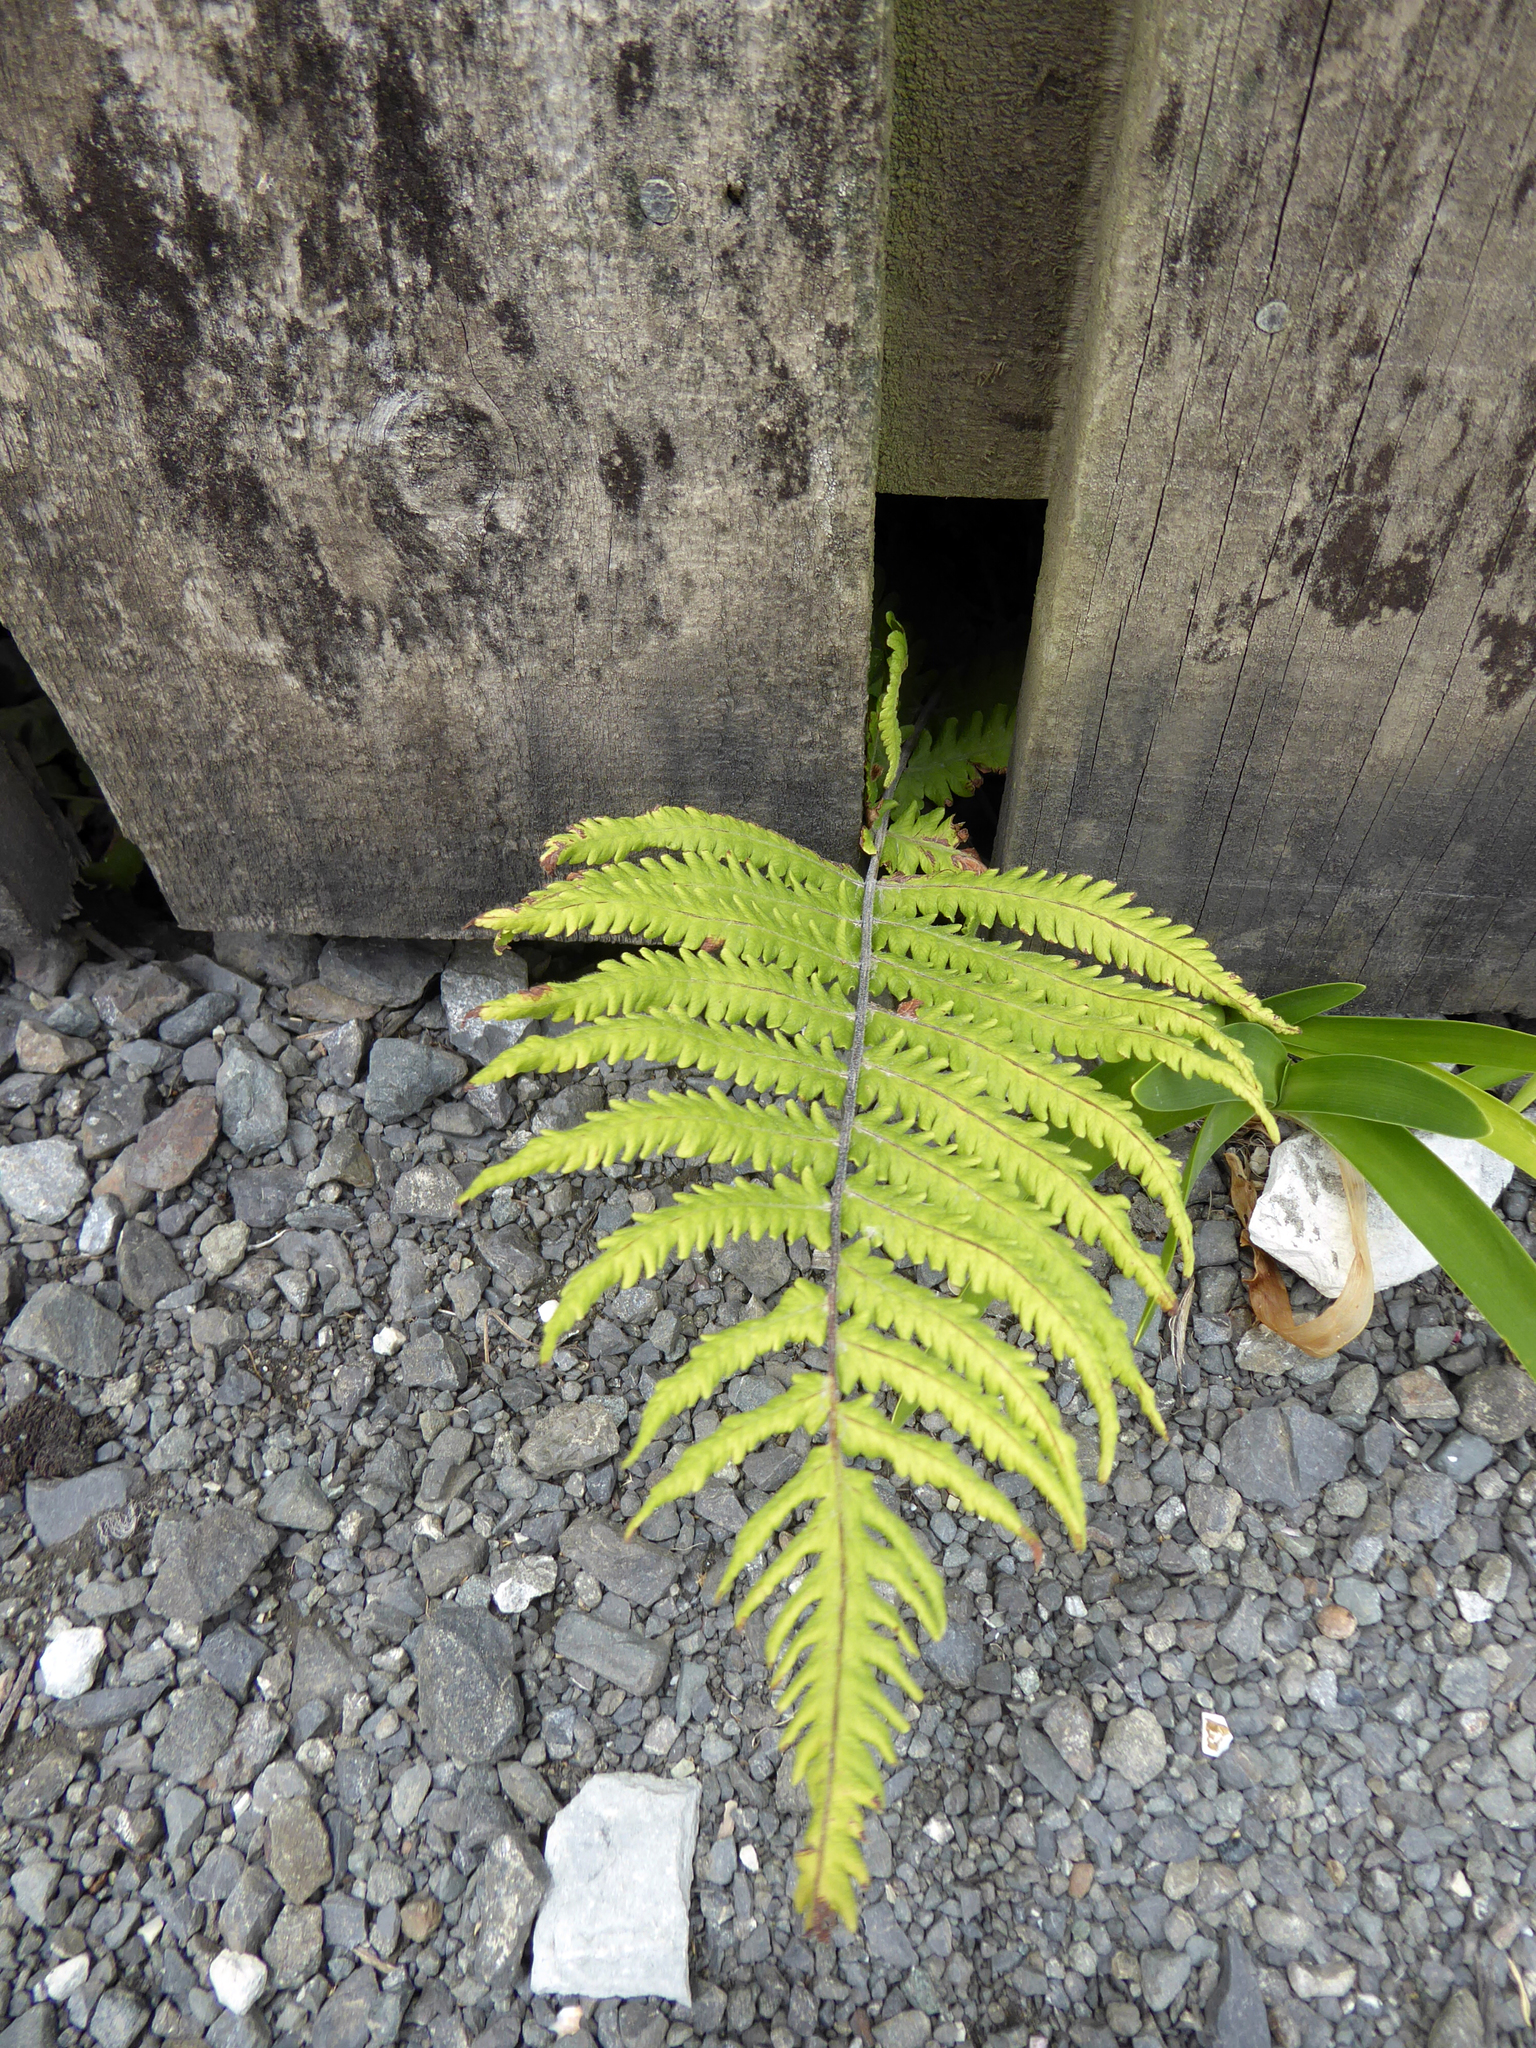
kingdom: Plantae
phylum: Tracheophyta
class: Polypodiopsida
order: Polypodiales
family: Thelypteridaceae
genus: Christella
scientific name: Christella dentata
